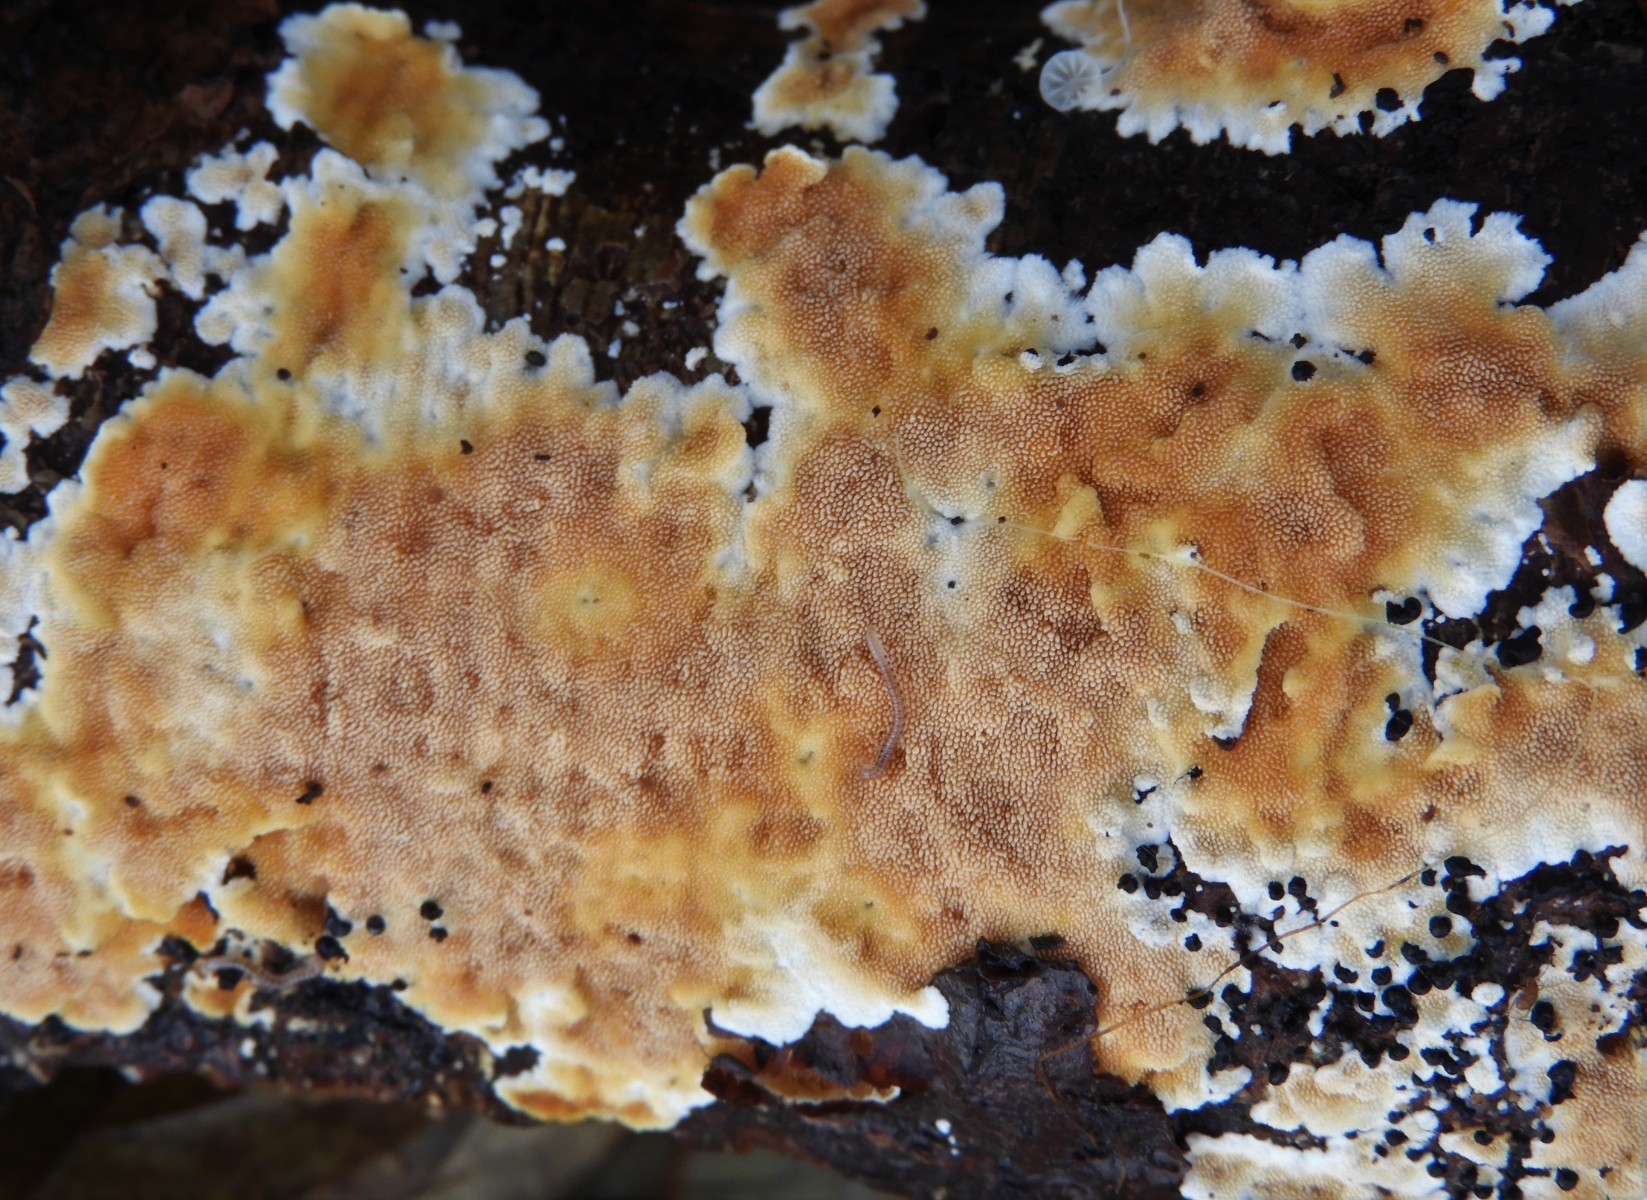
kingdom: Fungi
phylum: Basidiomycota
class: Agaricomycetes
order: Polyporales
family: Steccherinaceae
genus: Steccherinum
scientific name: Steccherinum ochraceum
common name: almindelig skønpig
